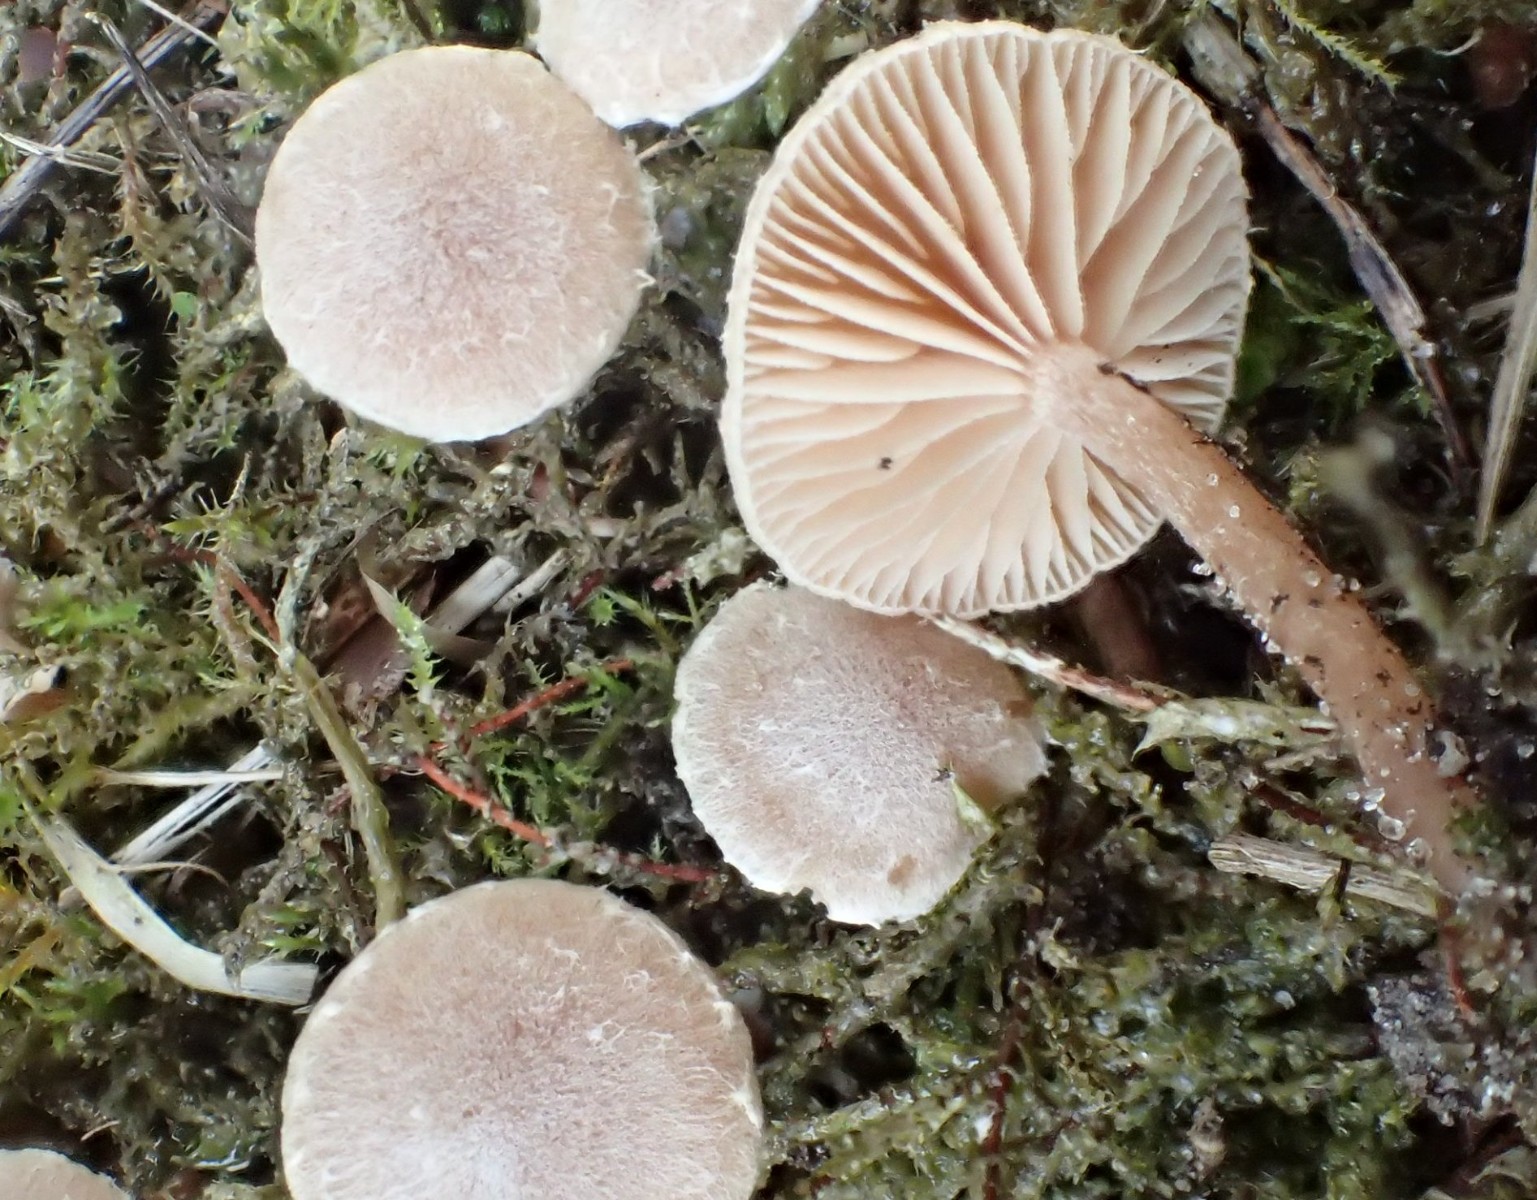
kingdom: Fungi
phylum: Basidiomycota
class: Agaricomycetes
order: Agaricales
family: Tubariaceae
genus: Tubaria
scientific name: Tubaria conspersa
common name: bleg fnughat
